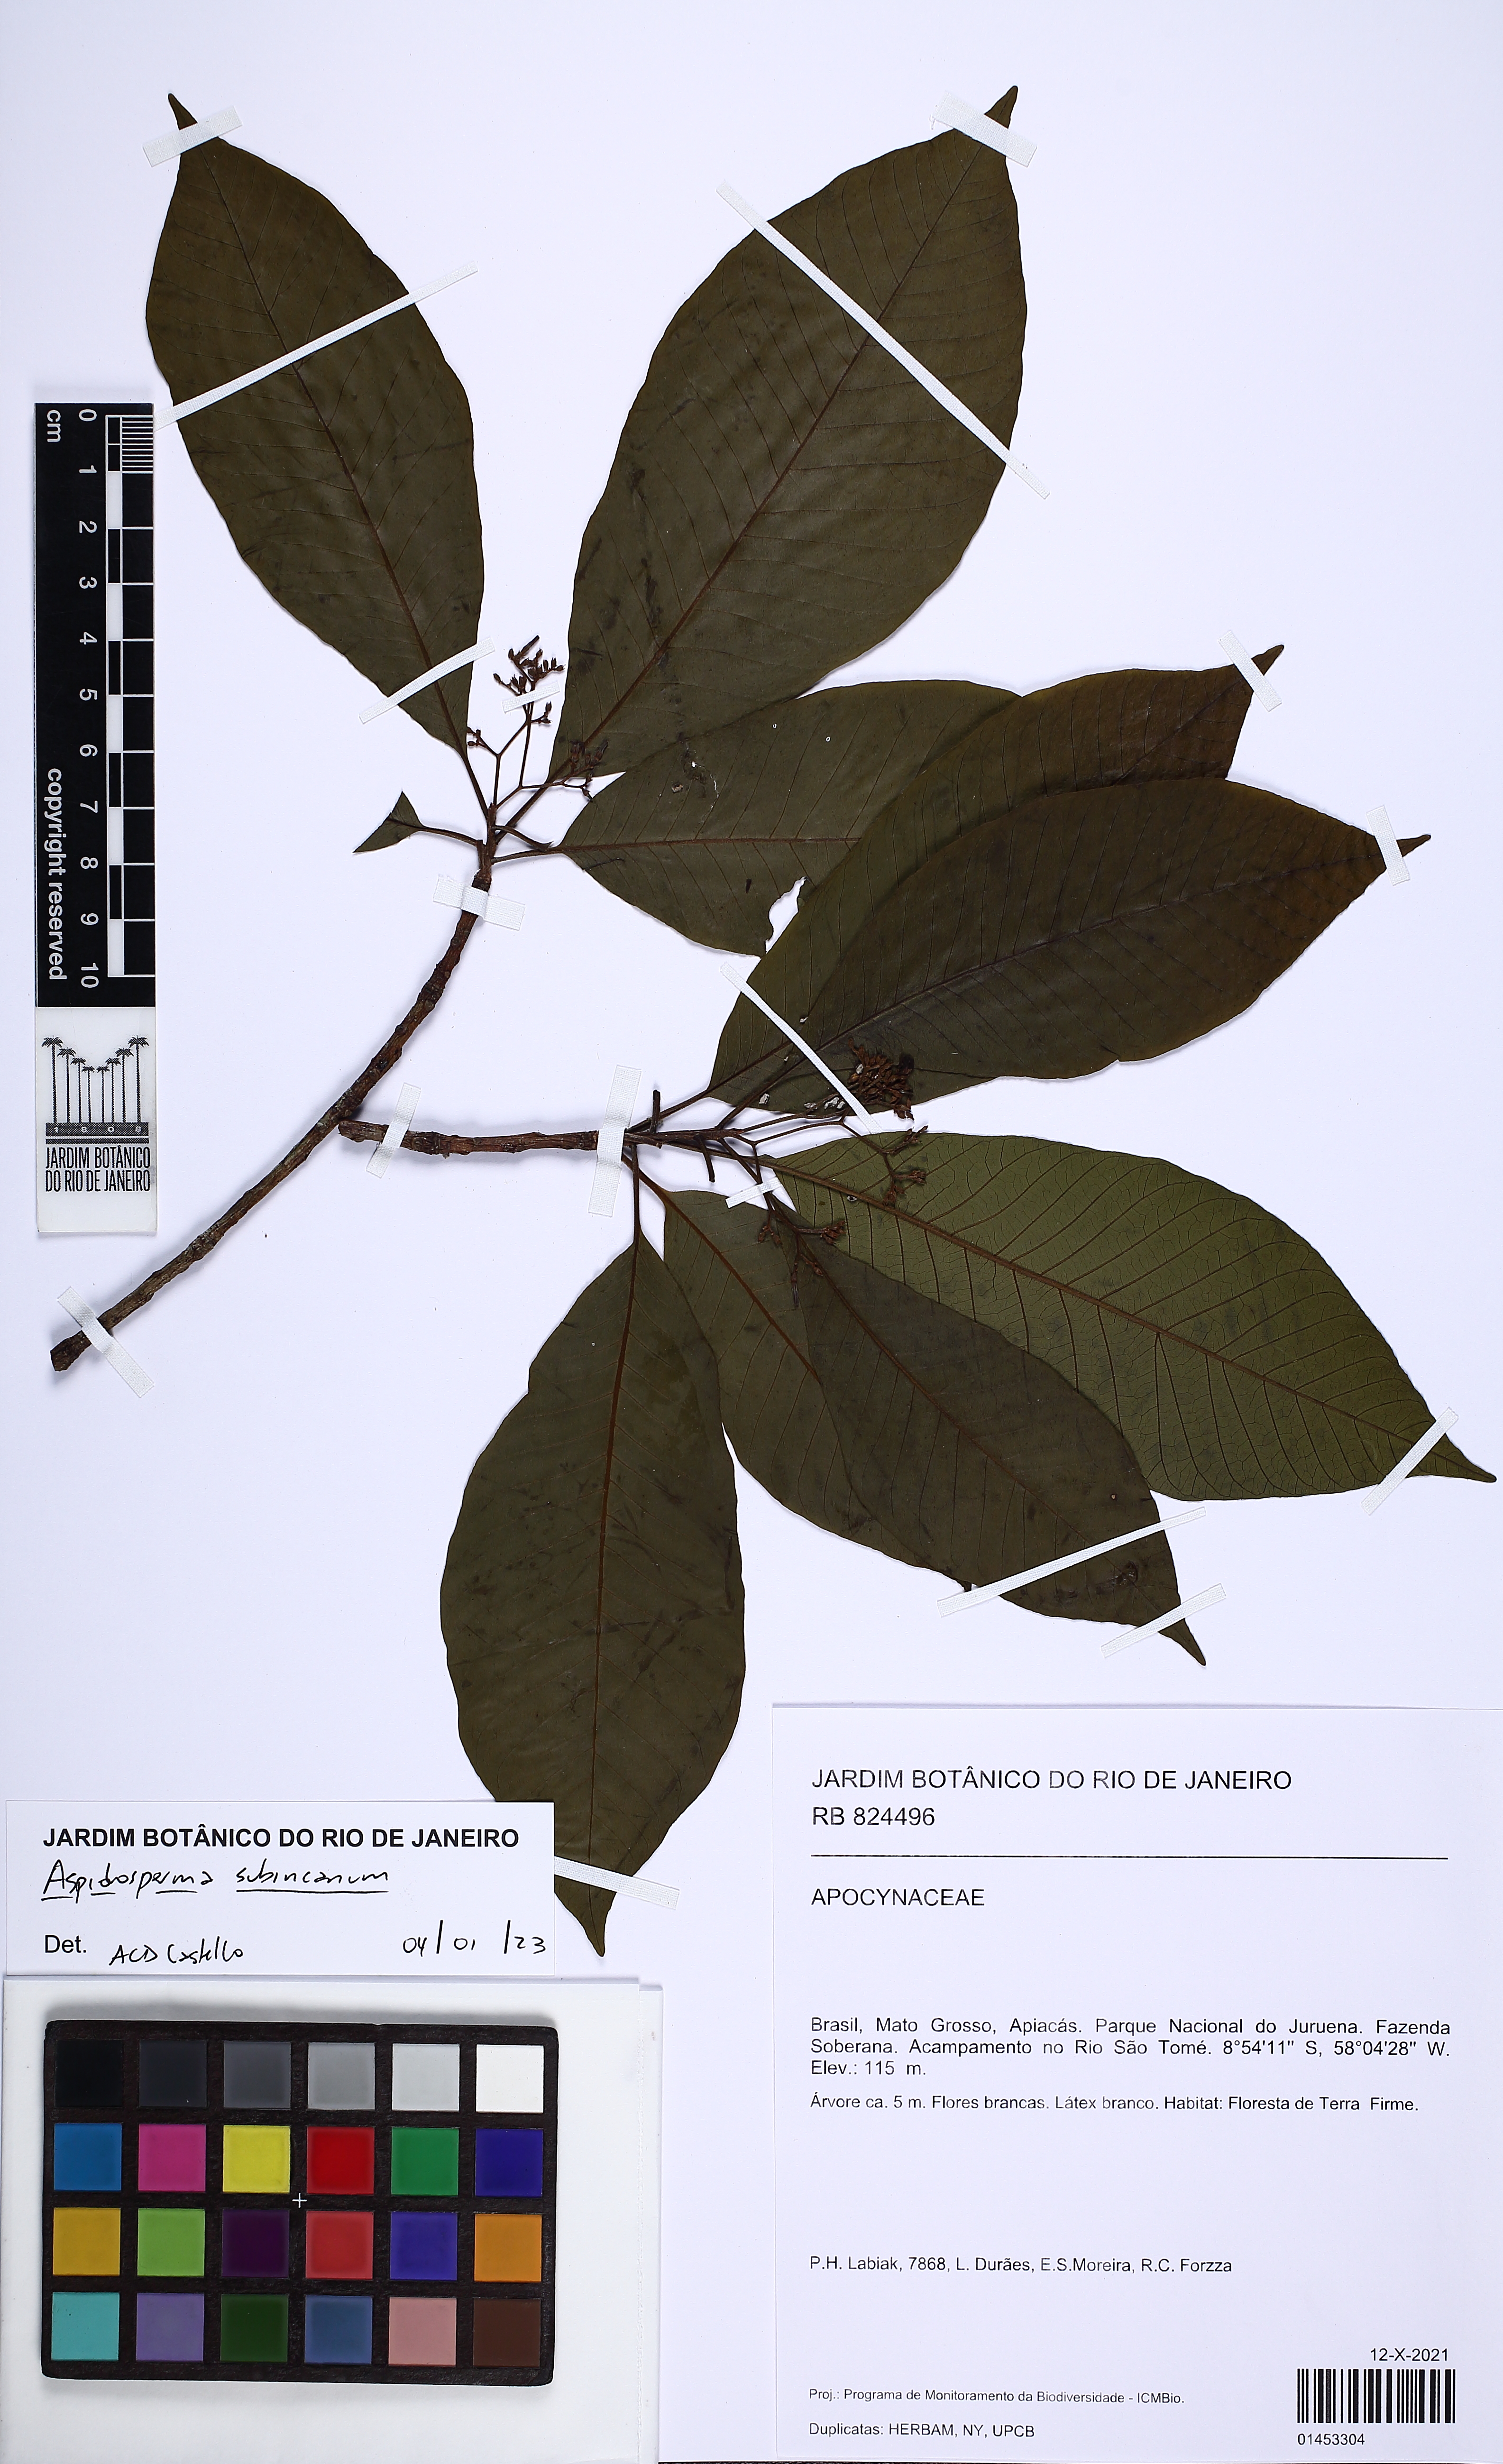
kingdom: Plantae
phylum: Tracheophyta
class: Magnoliopsida
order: Gentianales
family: Apocynaceae
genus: Aspidosperma
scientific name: Aspidosperma subincanum
